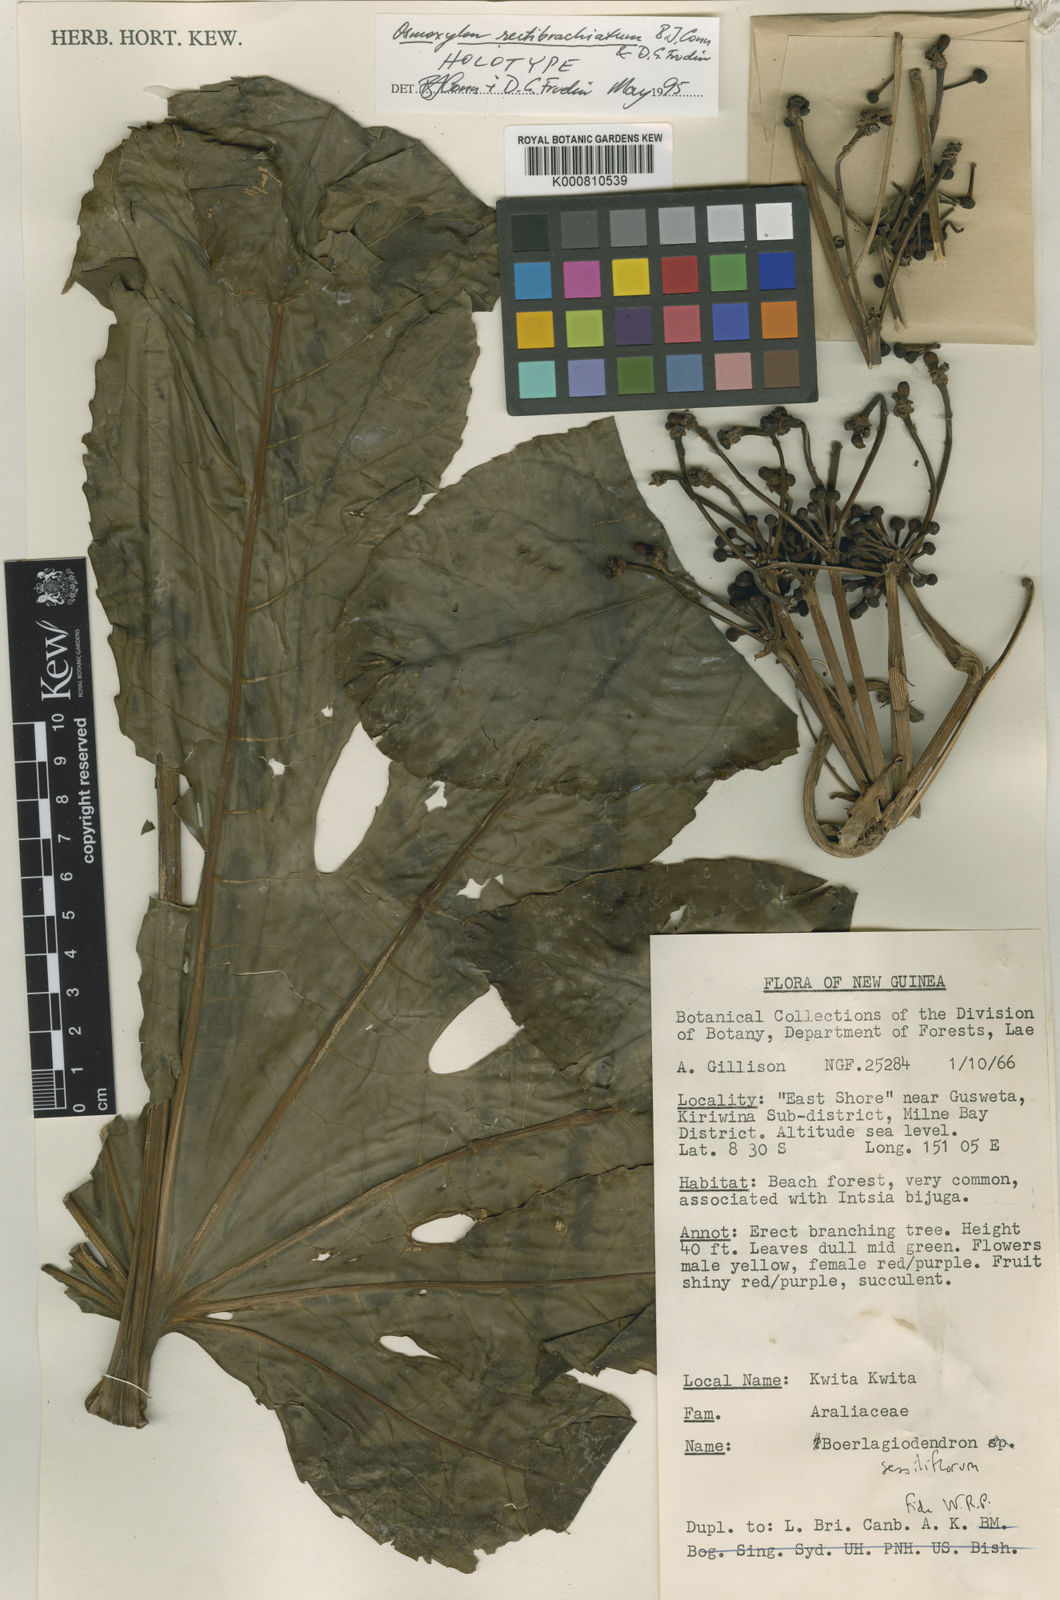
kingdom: Plantae
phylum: Tracheophyta
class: Magnoliopsida
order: Apiales
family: Araliaceae
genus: Osmoxylon
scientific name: Osmoxylon rectibrachiatum
